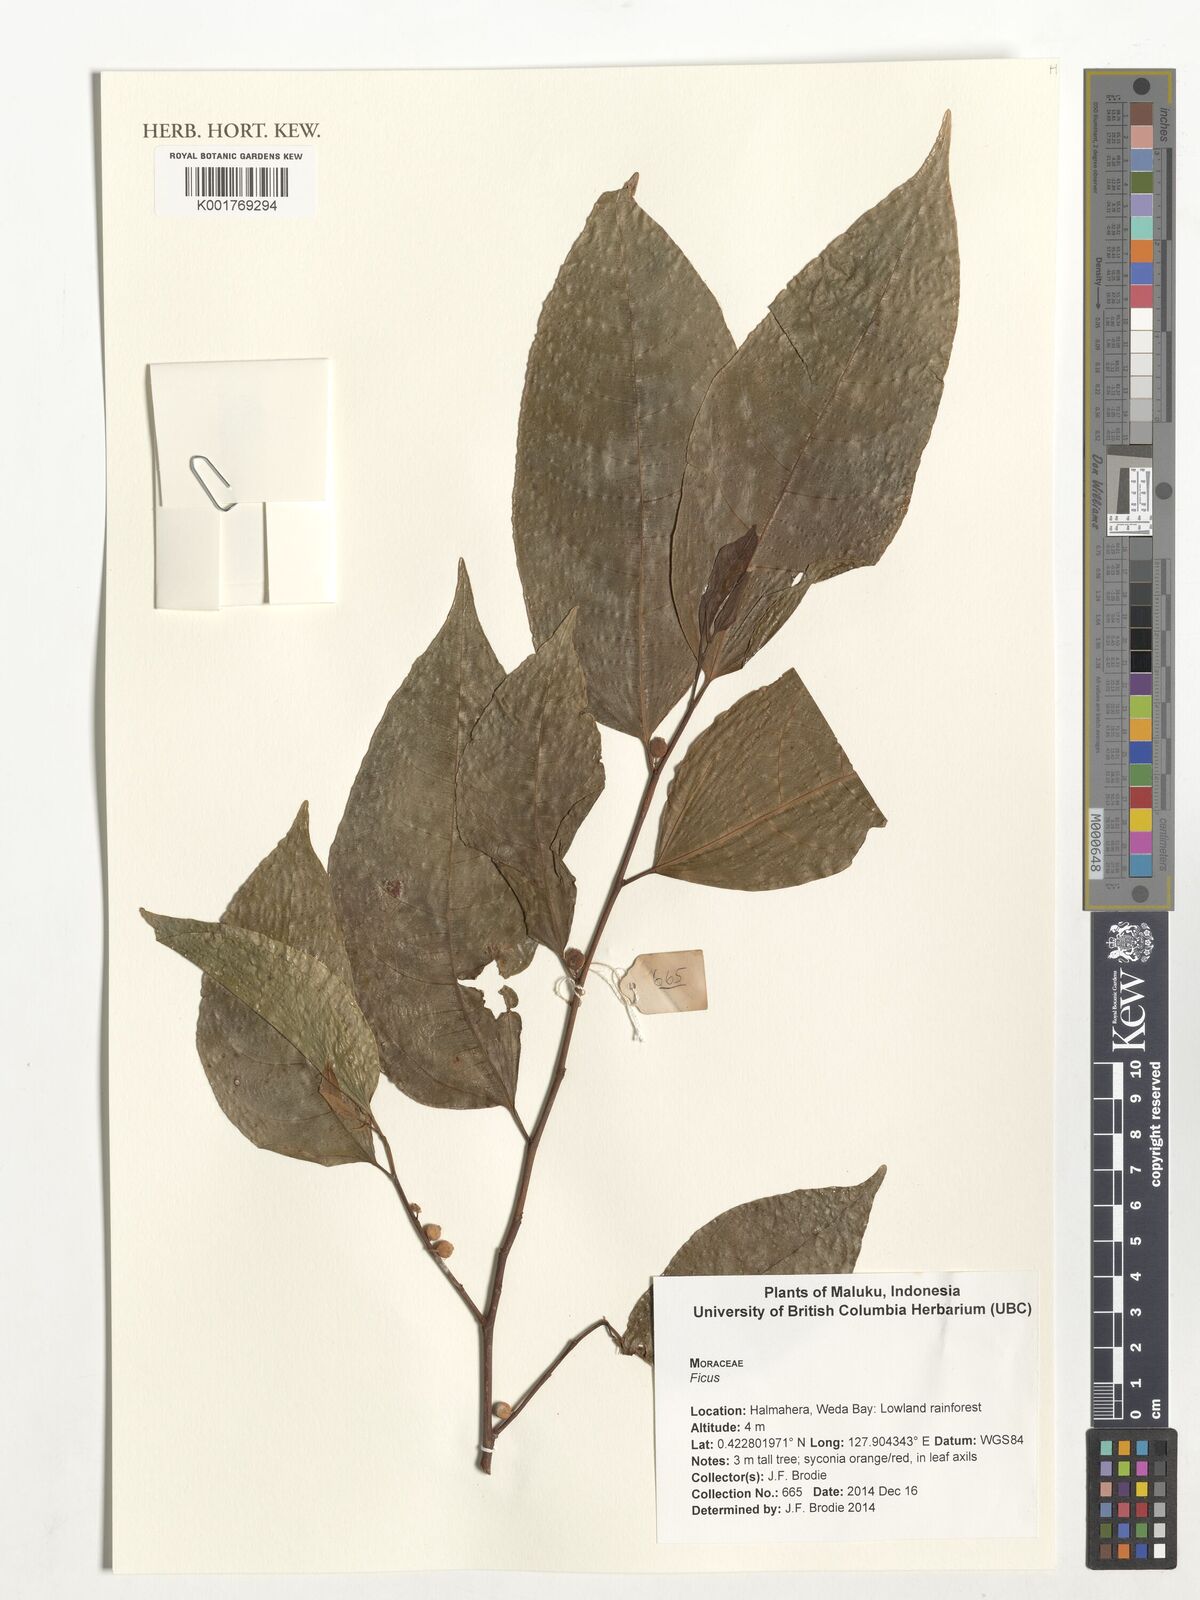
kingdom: Plantae
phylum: Tracheophyta
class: Magnoliopsida
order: Rosales
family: Moraceae
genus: Ficus
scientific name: Ficus
